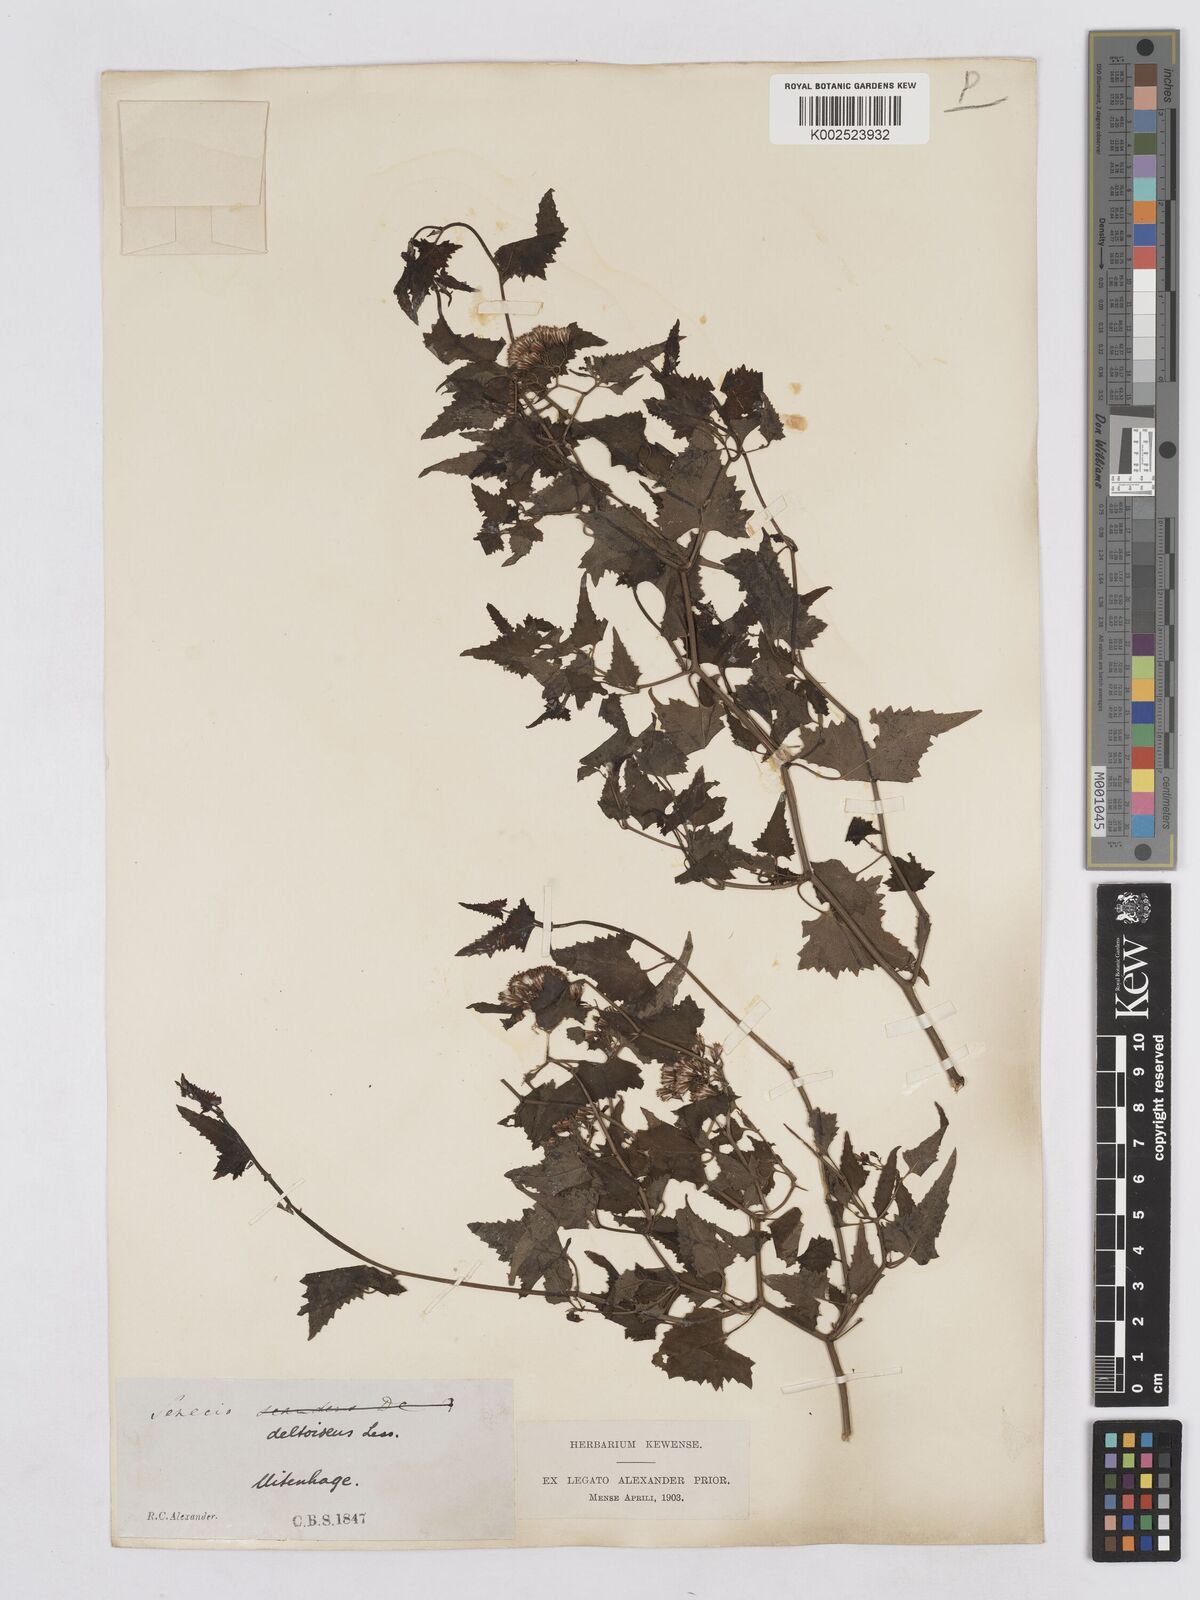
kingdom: Plantae
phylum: Tracheophyta
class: Magnoliopsida
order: Asterales
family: Asteraceae
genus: Senecio
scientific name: Senecio deltoideus
